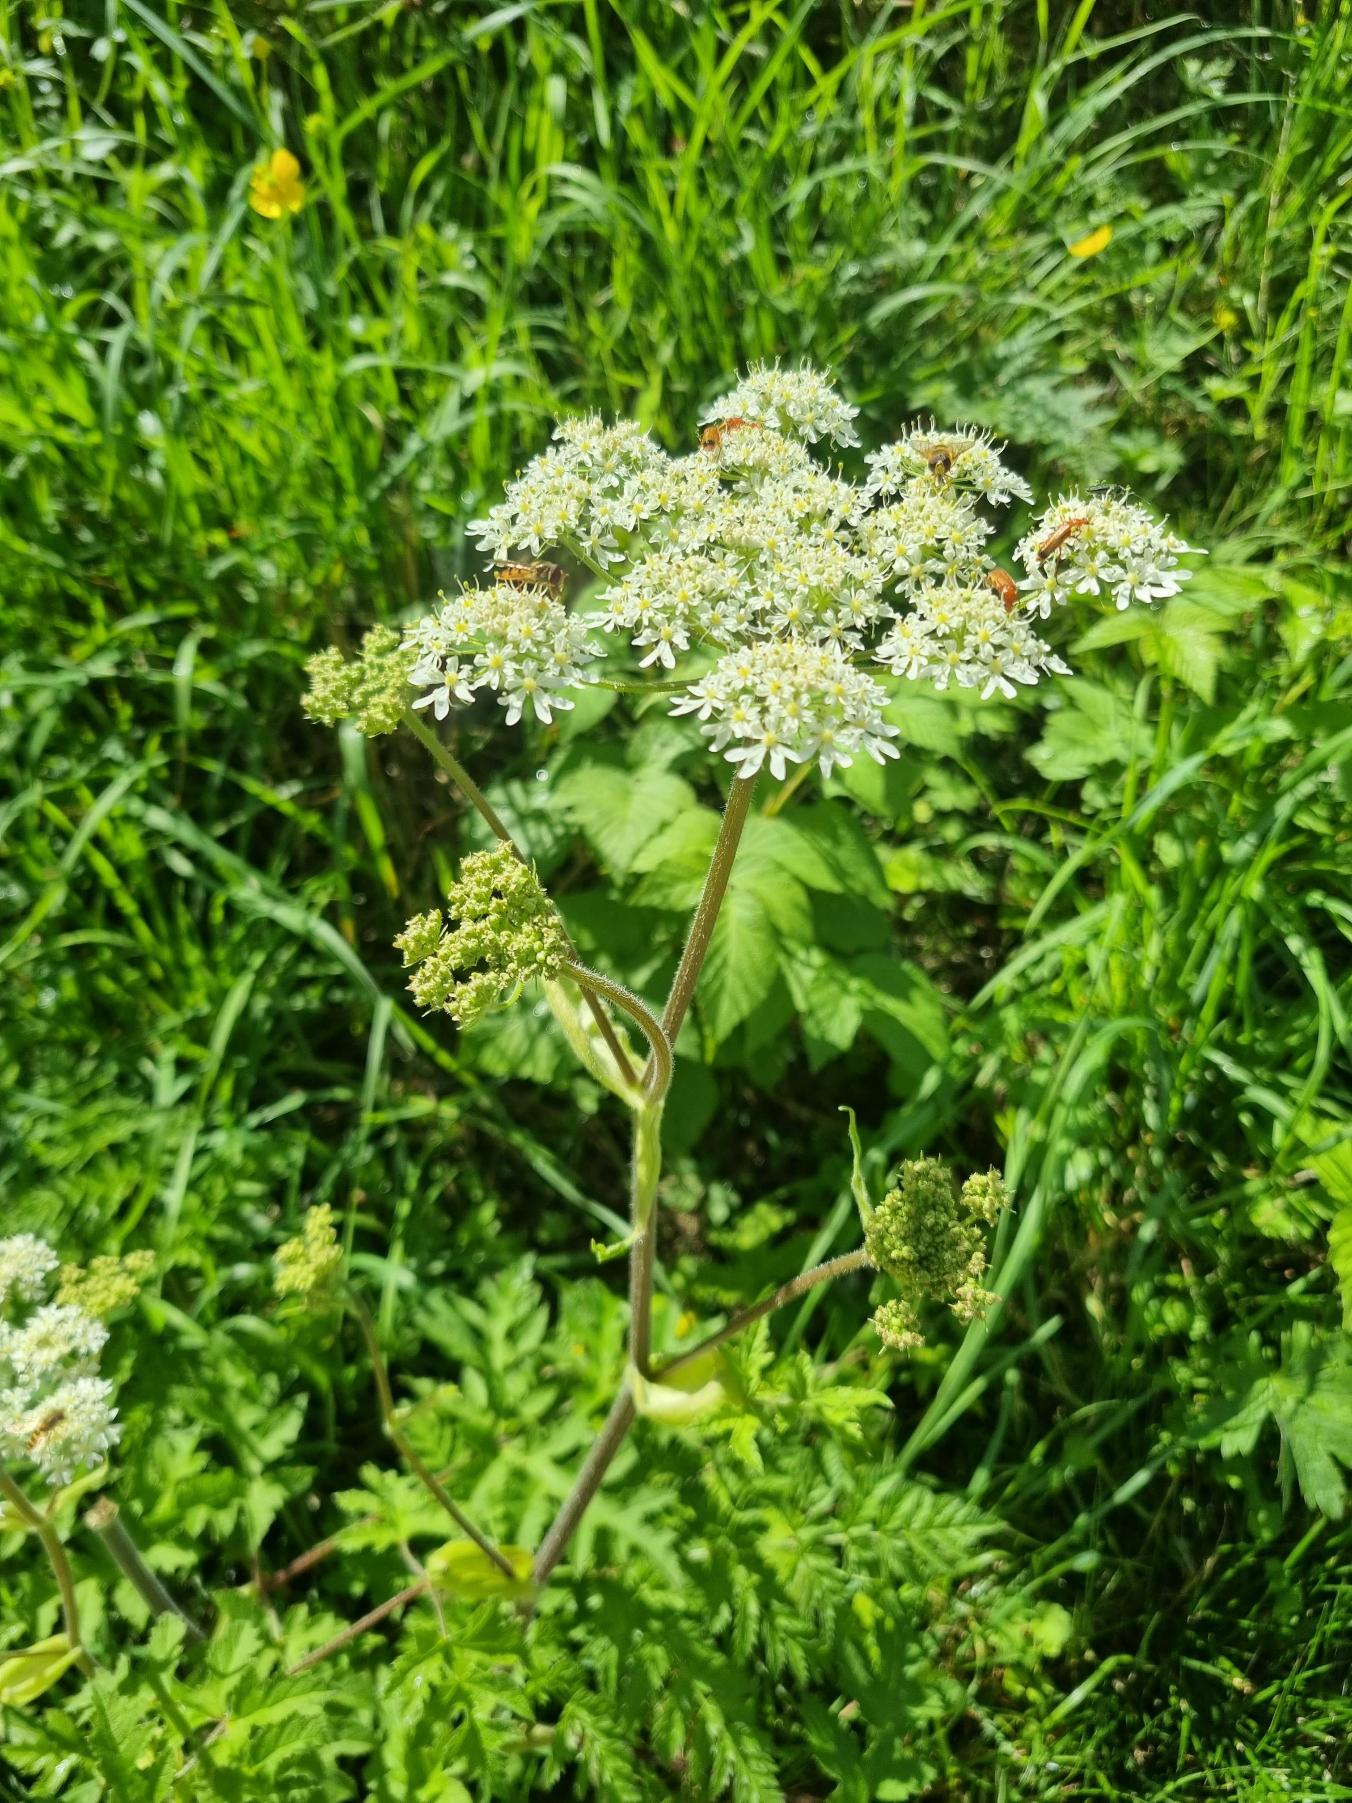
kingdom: Plantae
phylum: Tracheophyta
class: Magnoliopsida
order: Apiales
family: Apiaceae
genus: Heracleum
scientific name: Heracleum sphondylium
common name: Almindelig bjørneklo
